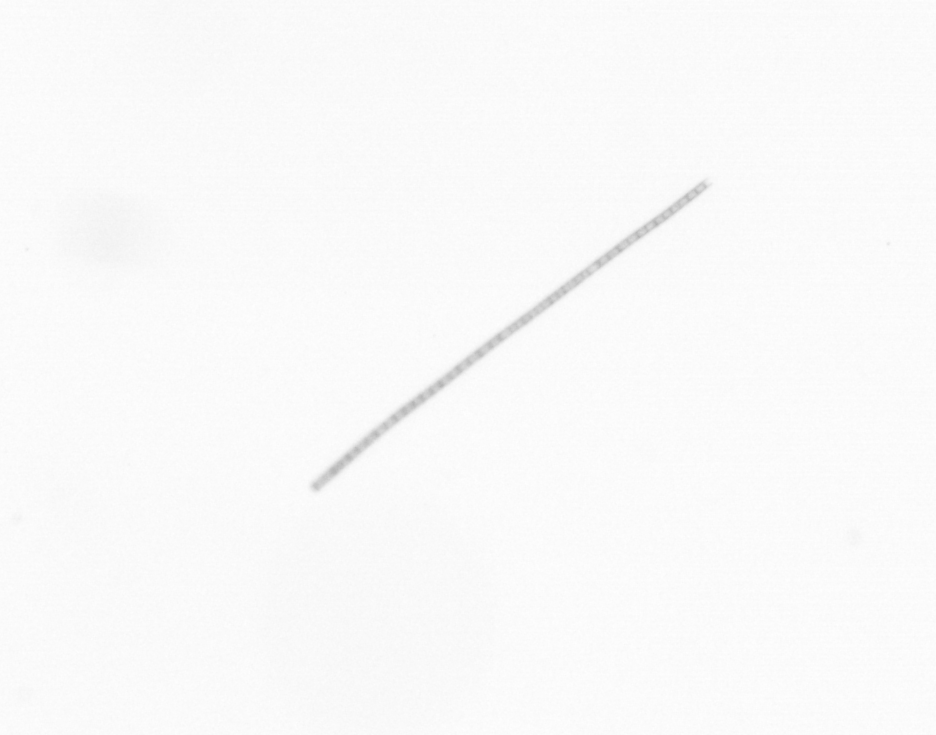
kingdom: Chromista
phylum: Ochrophyta
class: Bacillariophyceae
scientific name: Bacillariophyceae
